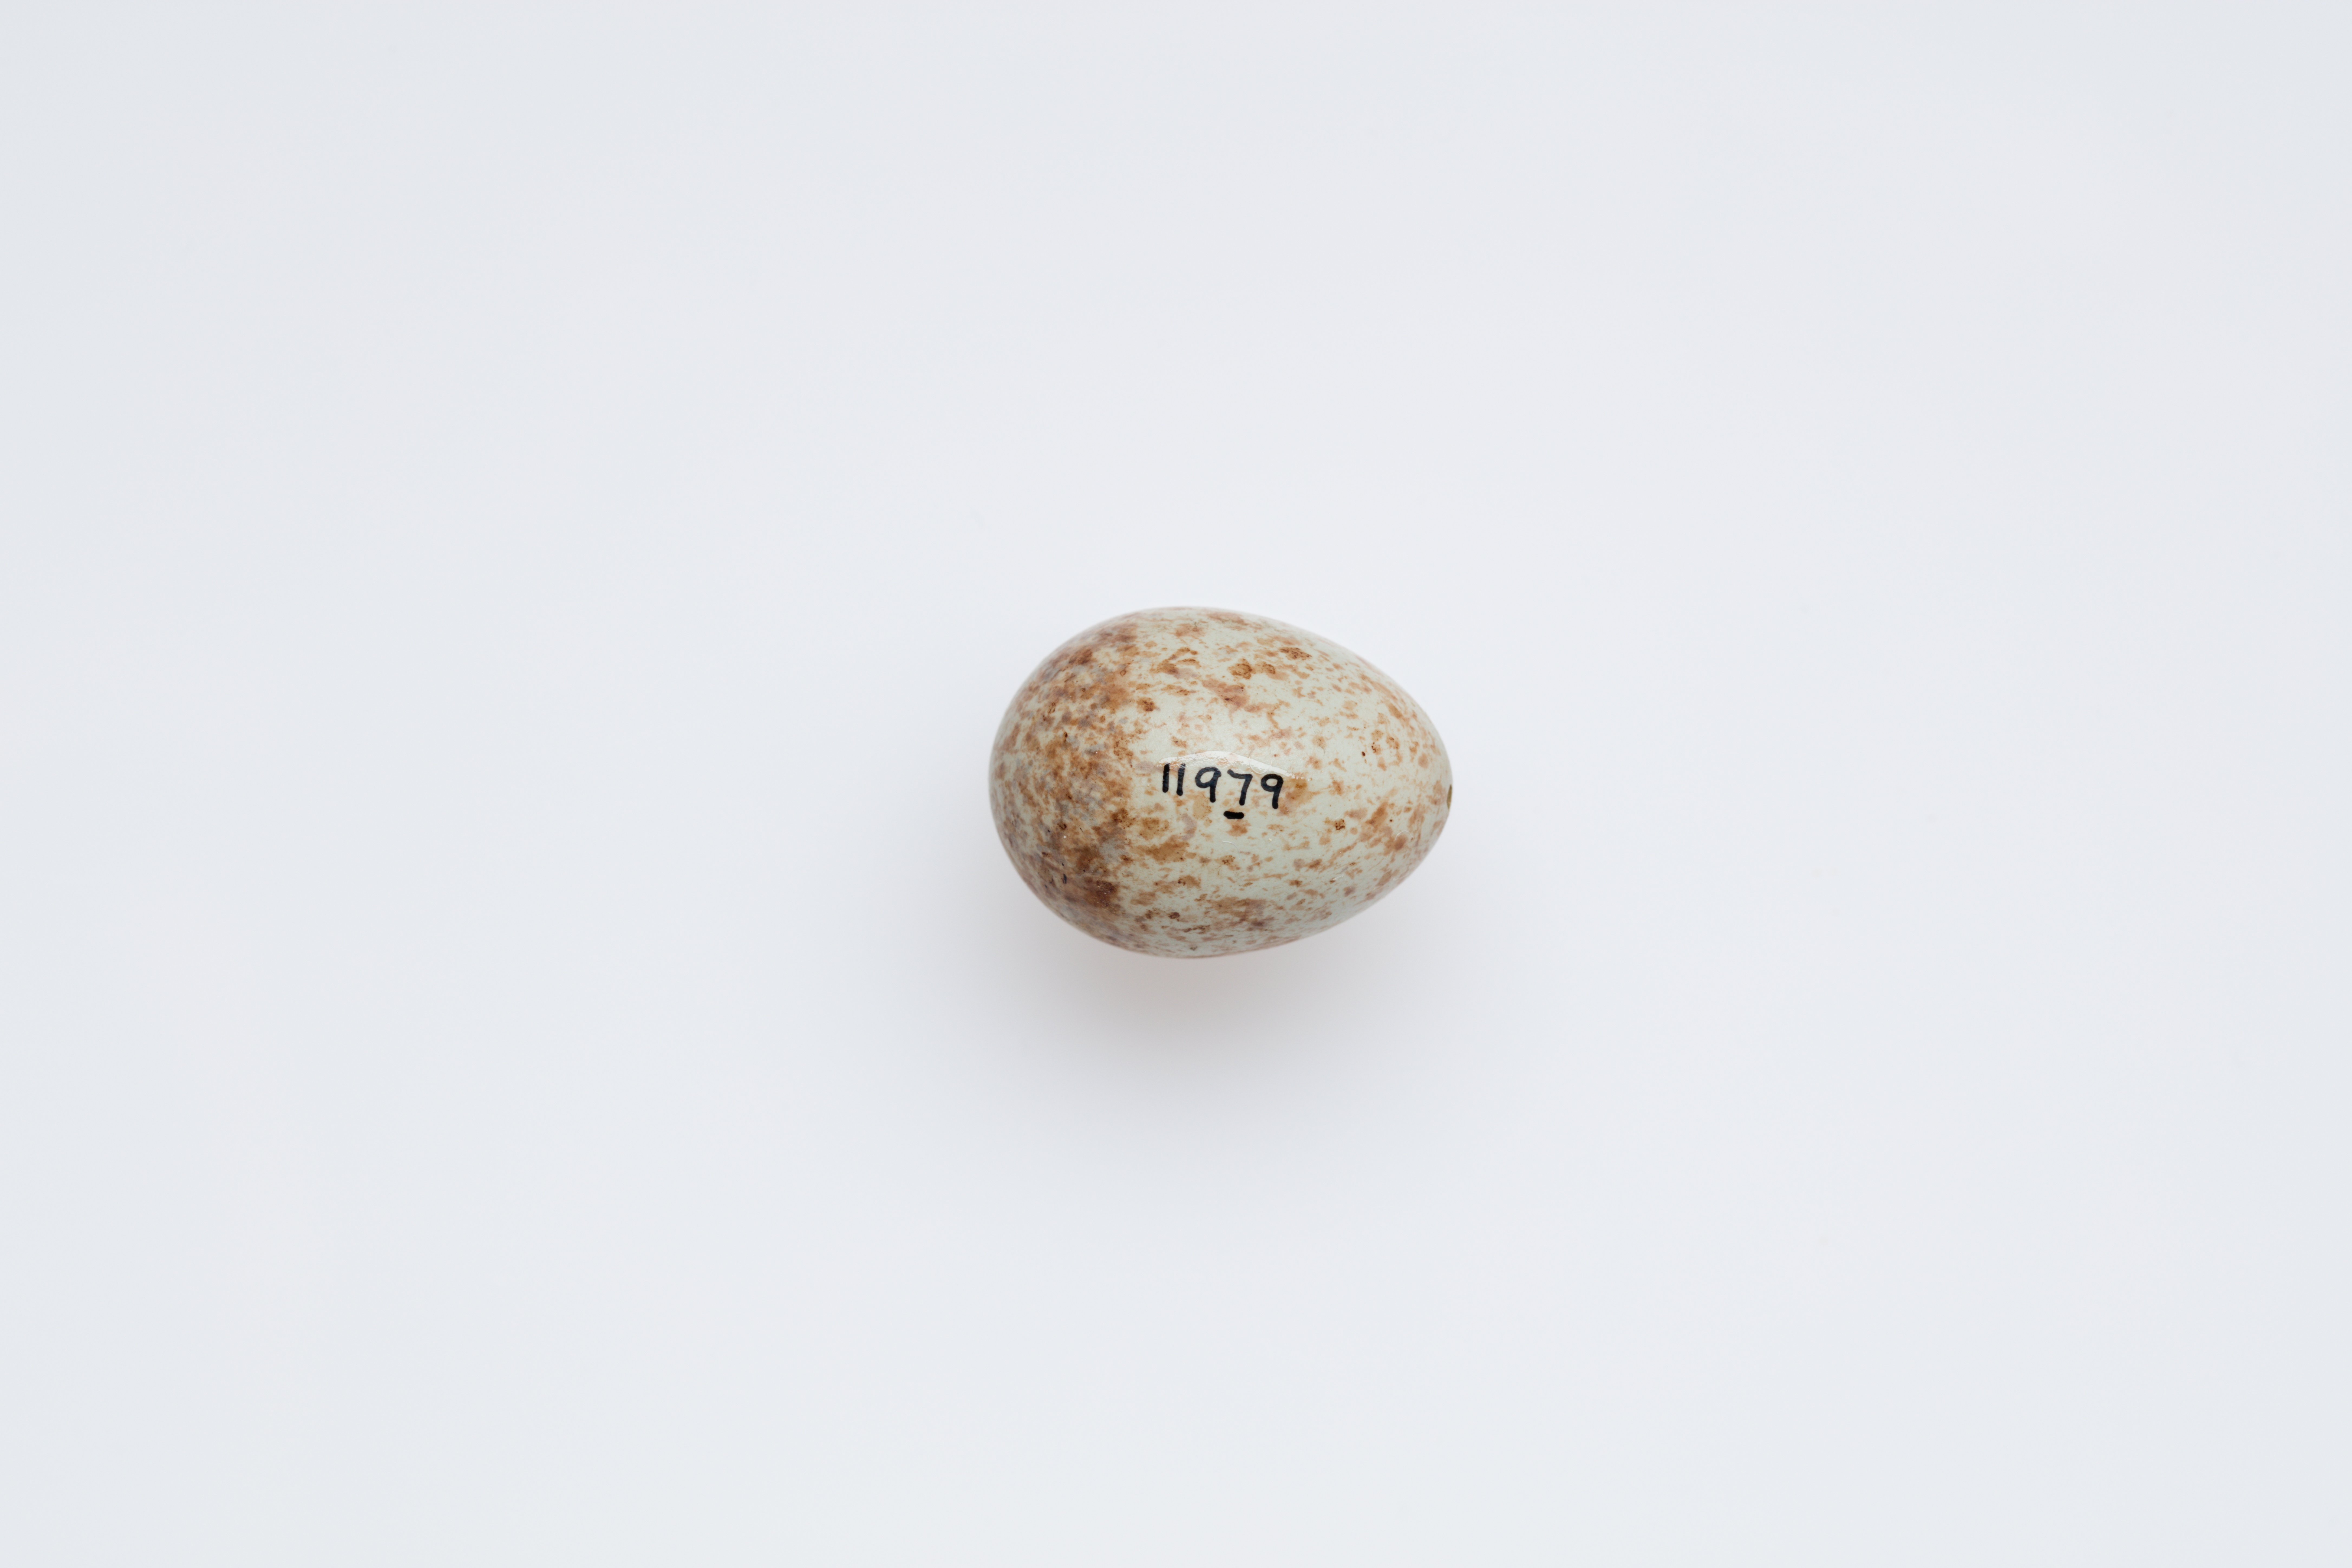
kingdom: Animalia
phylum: Chordata
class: Aves
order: Passeriformes
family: Campephagidae
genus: Lalage
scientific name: Lalage leucomela
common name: Varied triller
